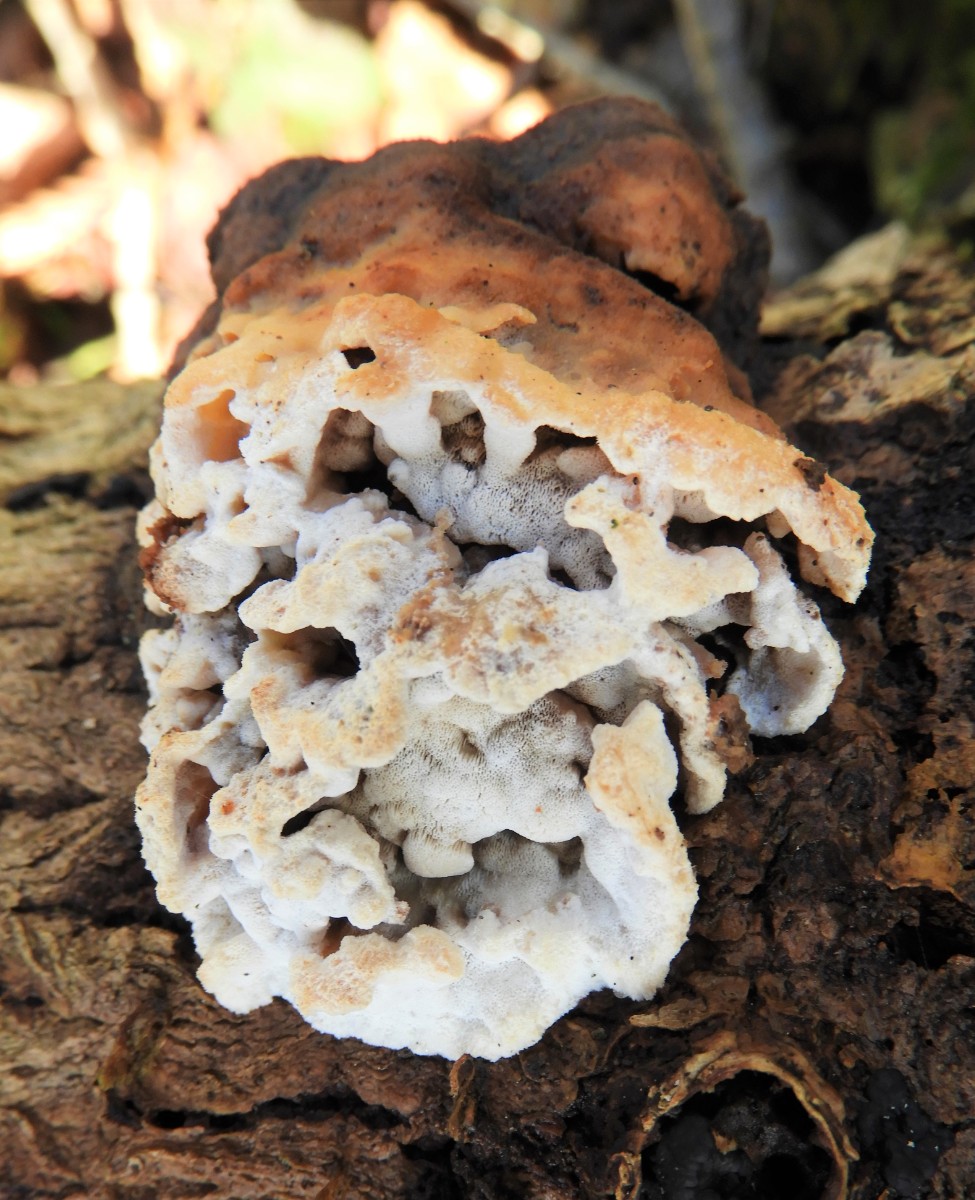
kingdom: Fungi
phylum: Basidiomycota
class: Agaricomycetes
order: Polyporales
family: Incrustoporiaceae
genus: Skeletocutis
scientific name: Skeletocutis nemoralis
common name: stor krystalporesvamp
